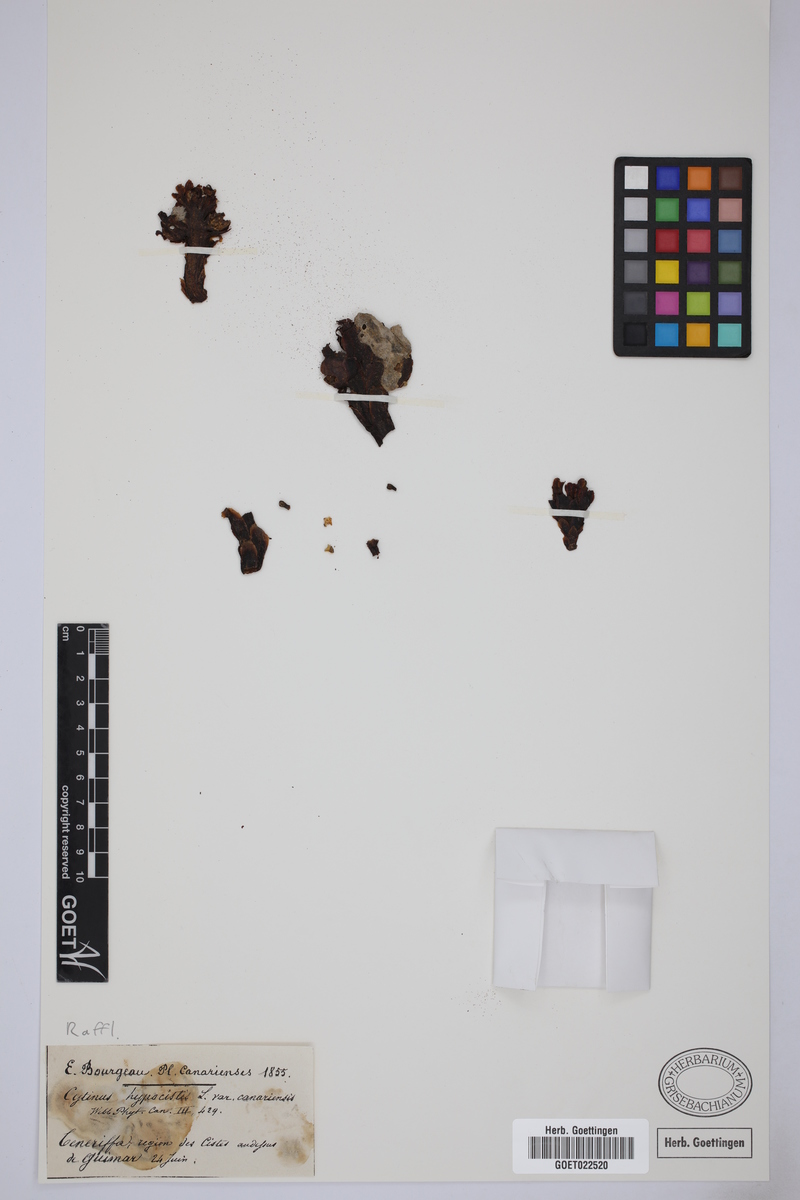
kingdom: Plantae
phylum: Tracheophyta
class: Magnoliopsida
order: Malvales
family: Cytinaceae
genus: Cytinus
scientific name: Cytinus hypocistis
